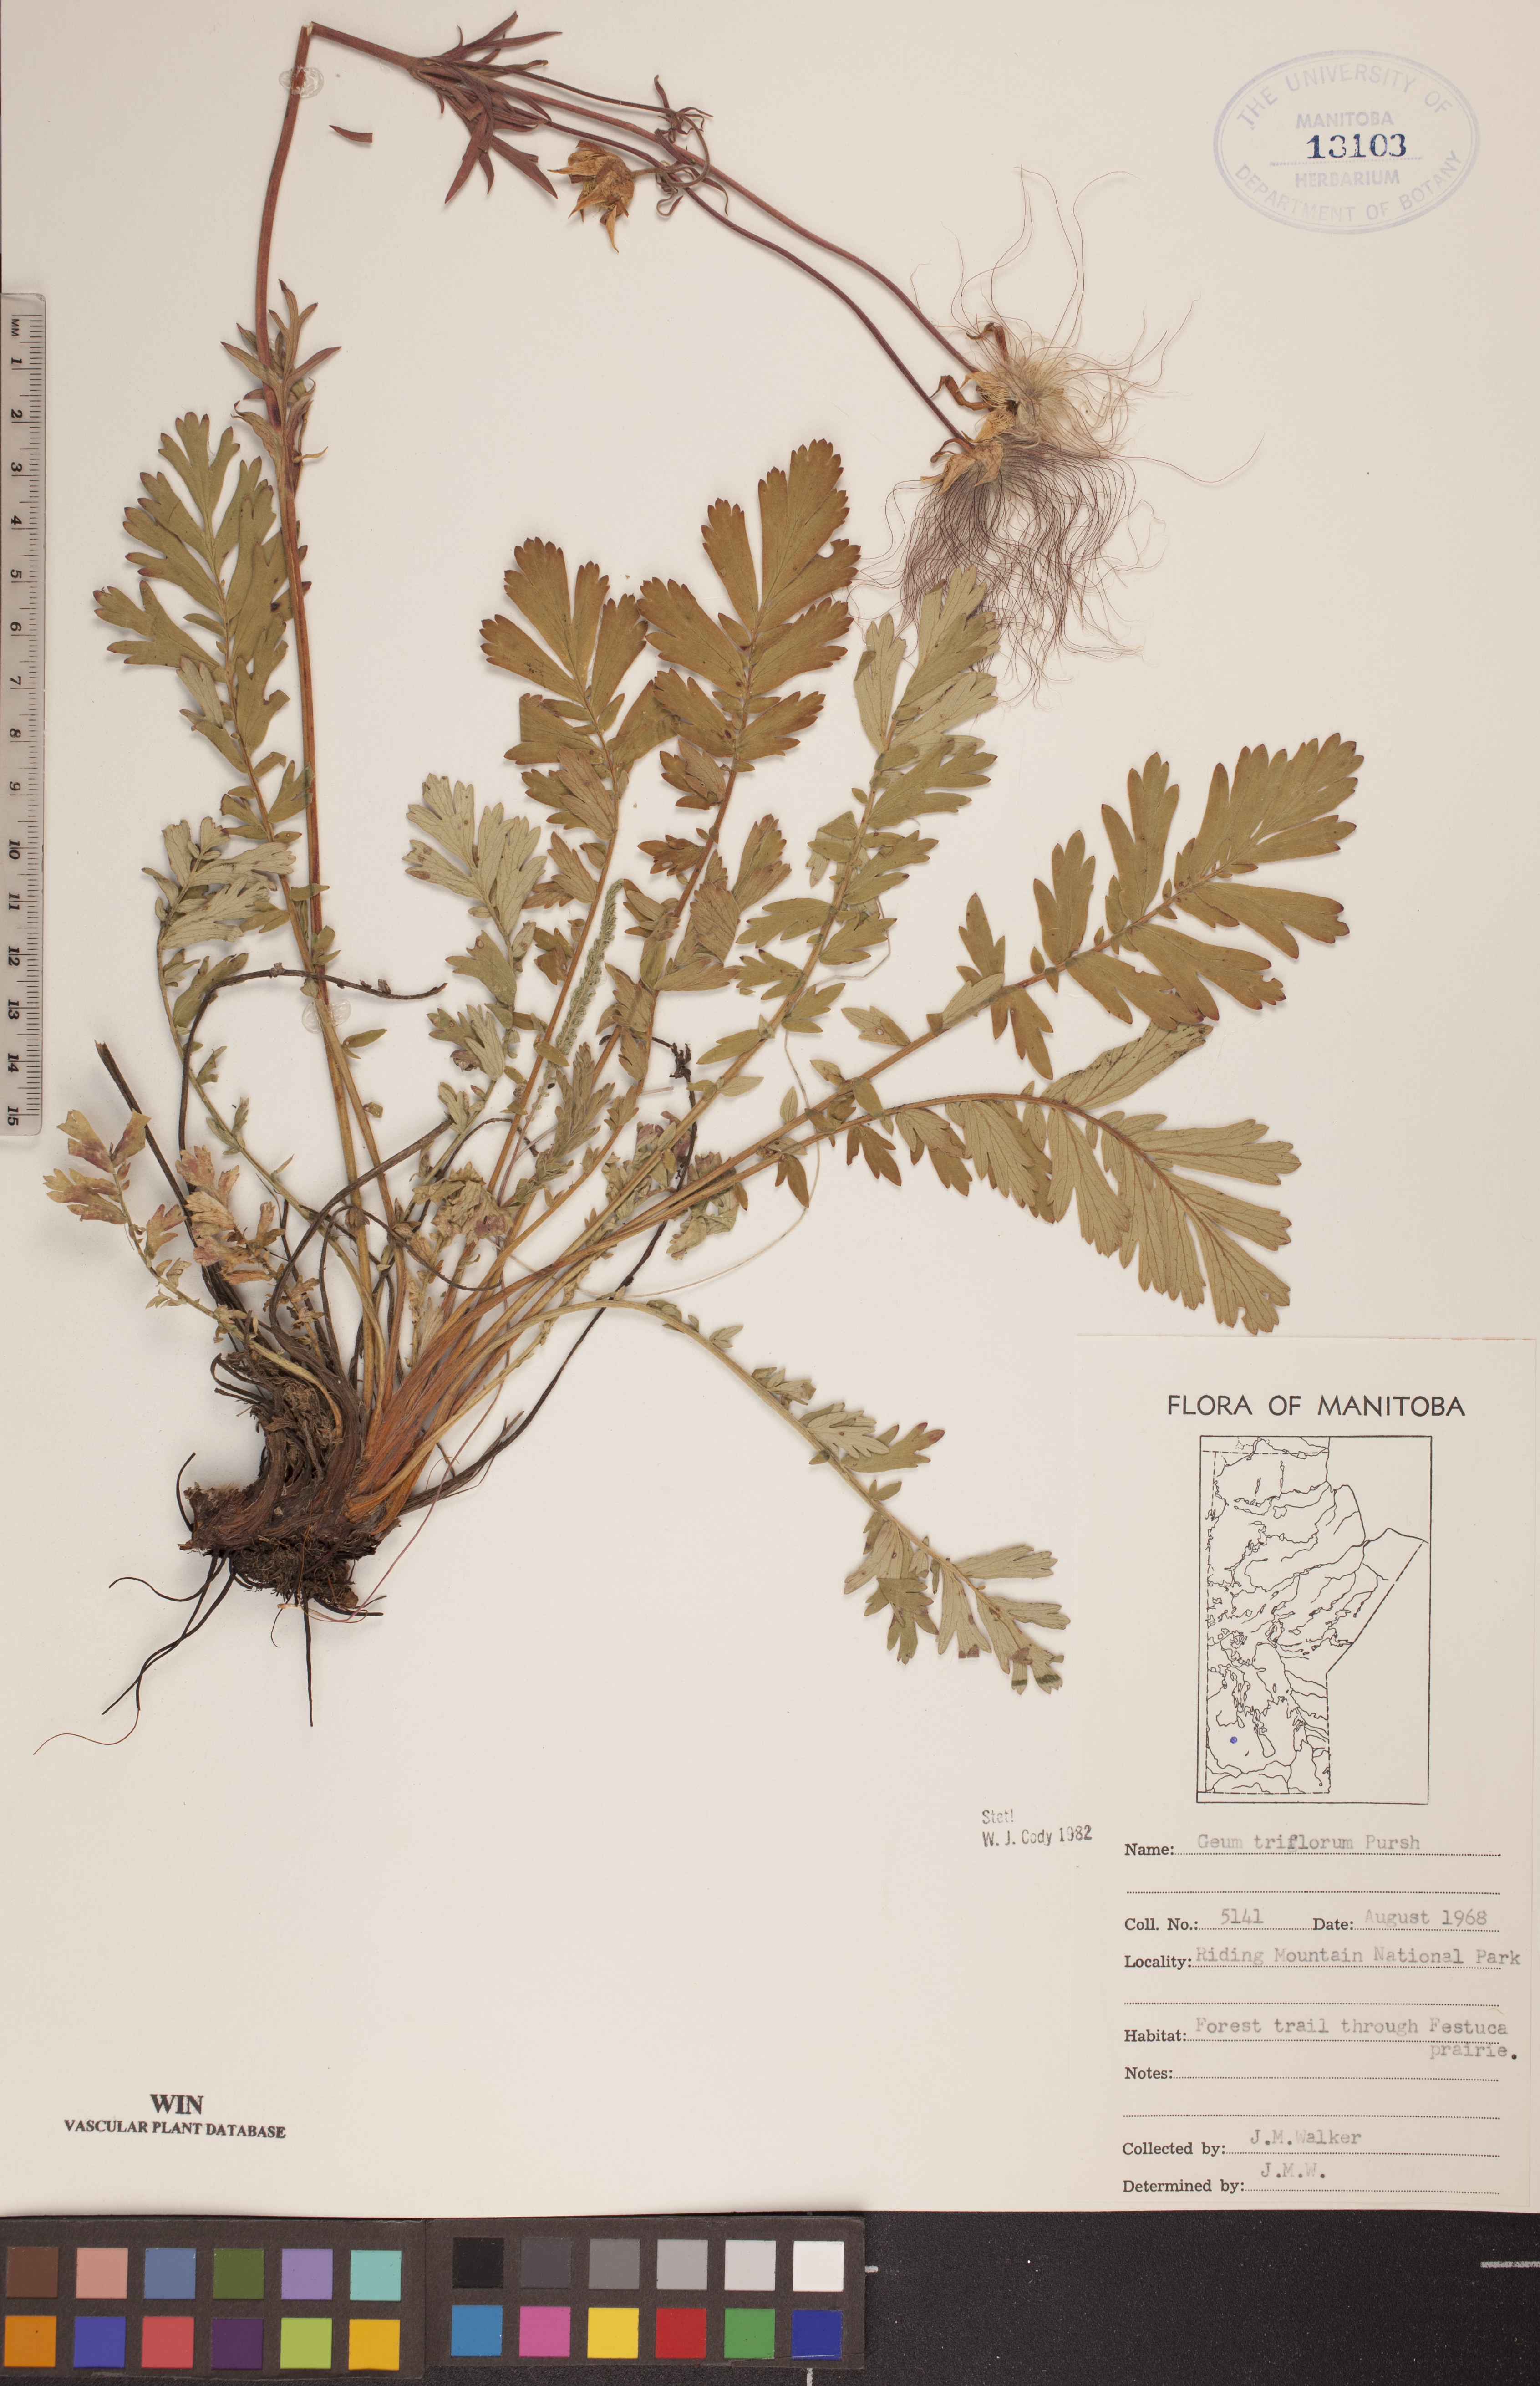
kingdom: Plantae
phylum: Tracheophyta
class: Magnoliopsida
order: Rosales
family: Rosaceae
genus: Geum
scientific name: Geum triflorum
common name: Old man's whiskers
